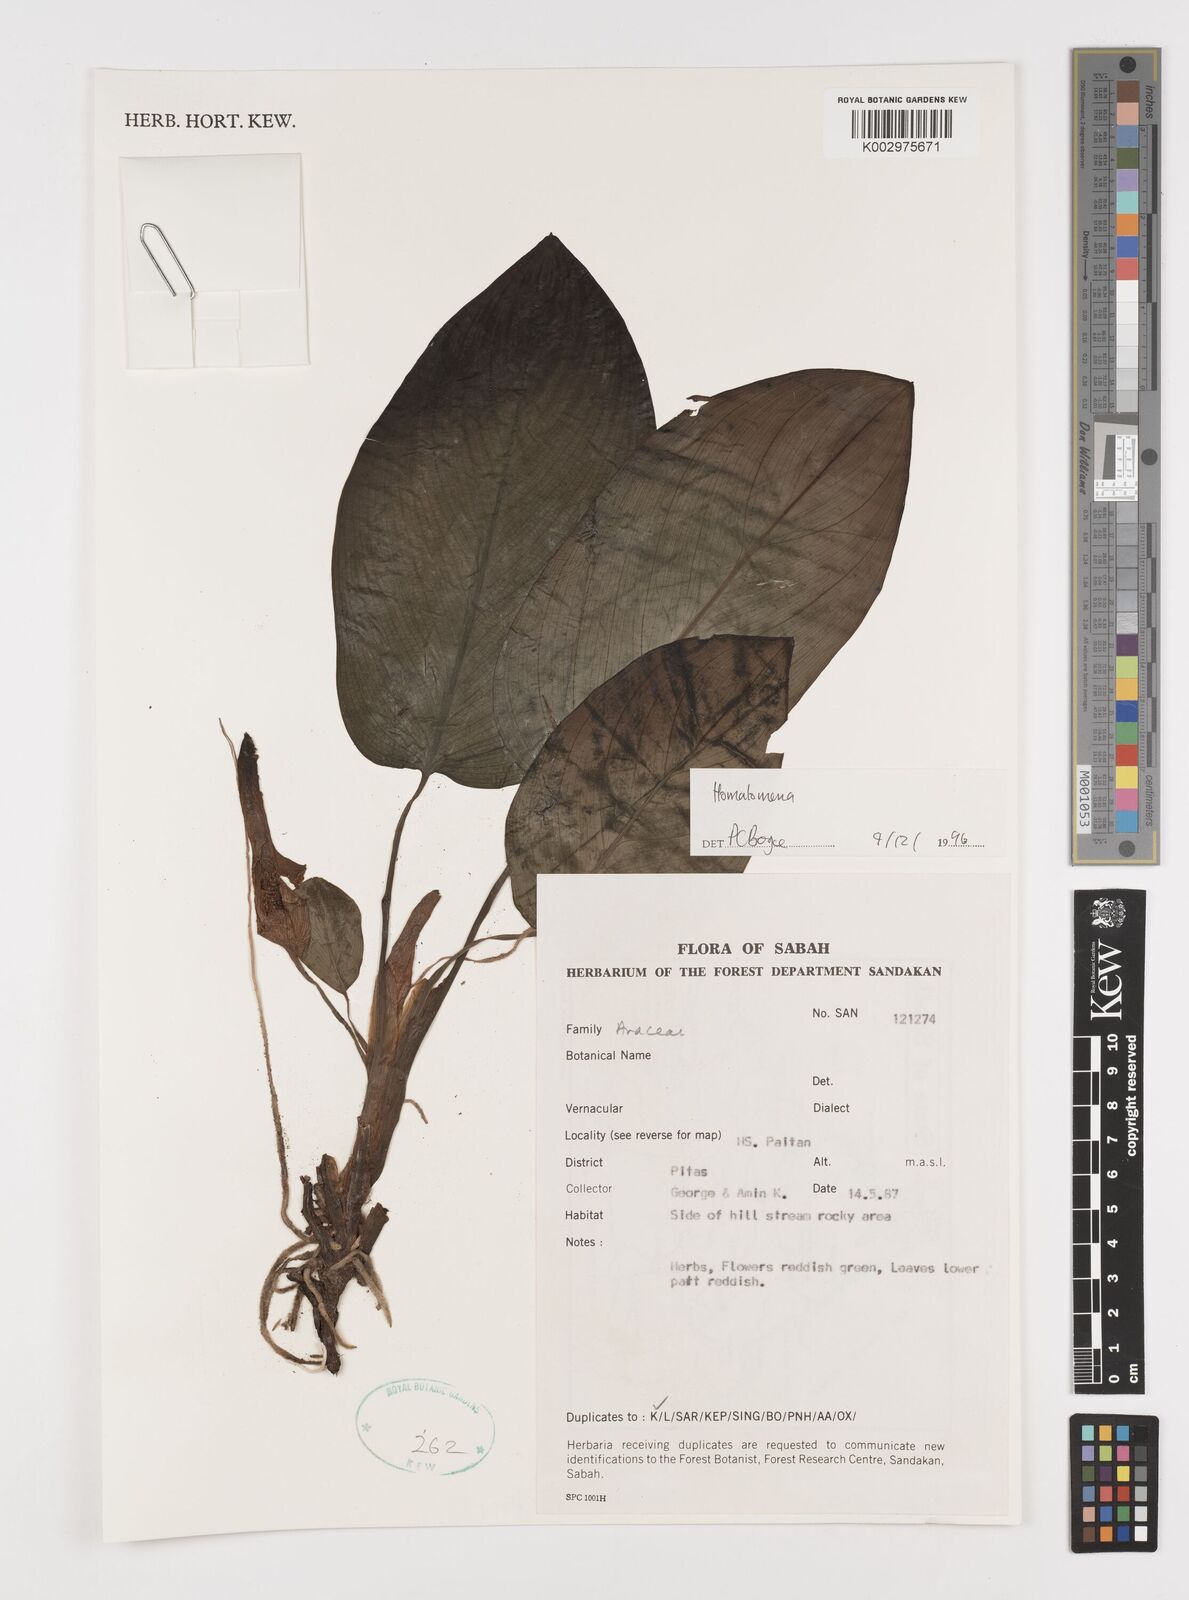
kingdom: Plantae
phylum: Tracheophyta
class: Liliopsida
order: Alismatales
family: Araceae
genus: Homalomena
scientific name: Homalomena
